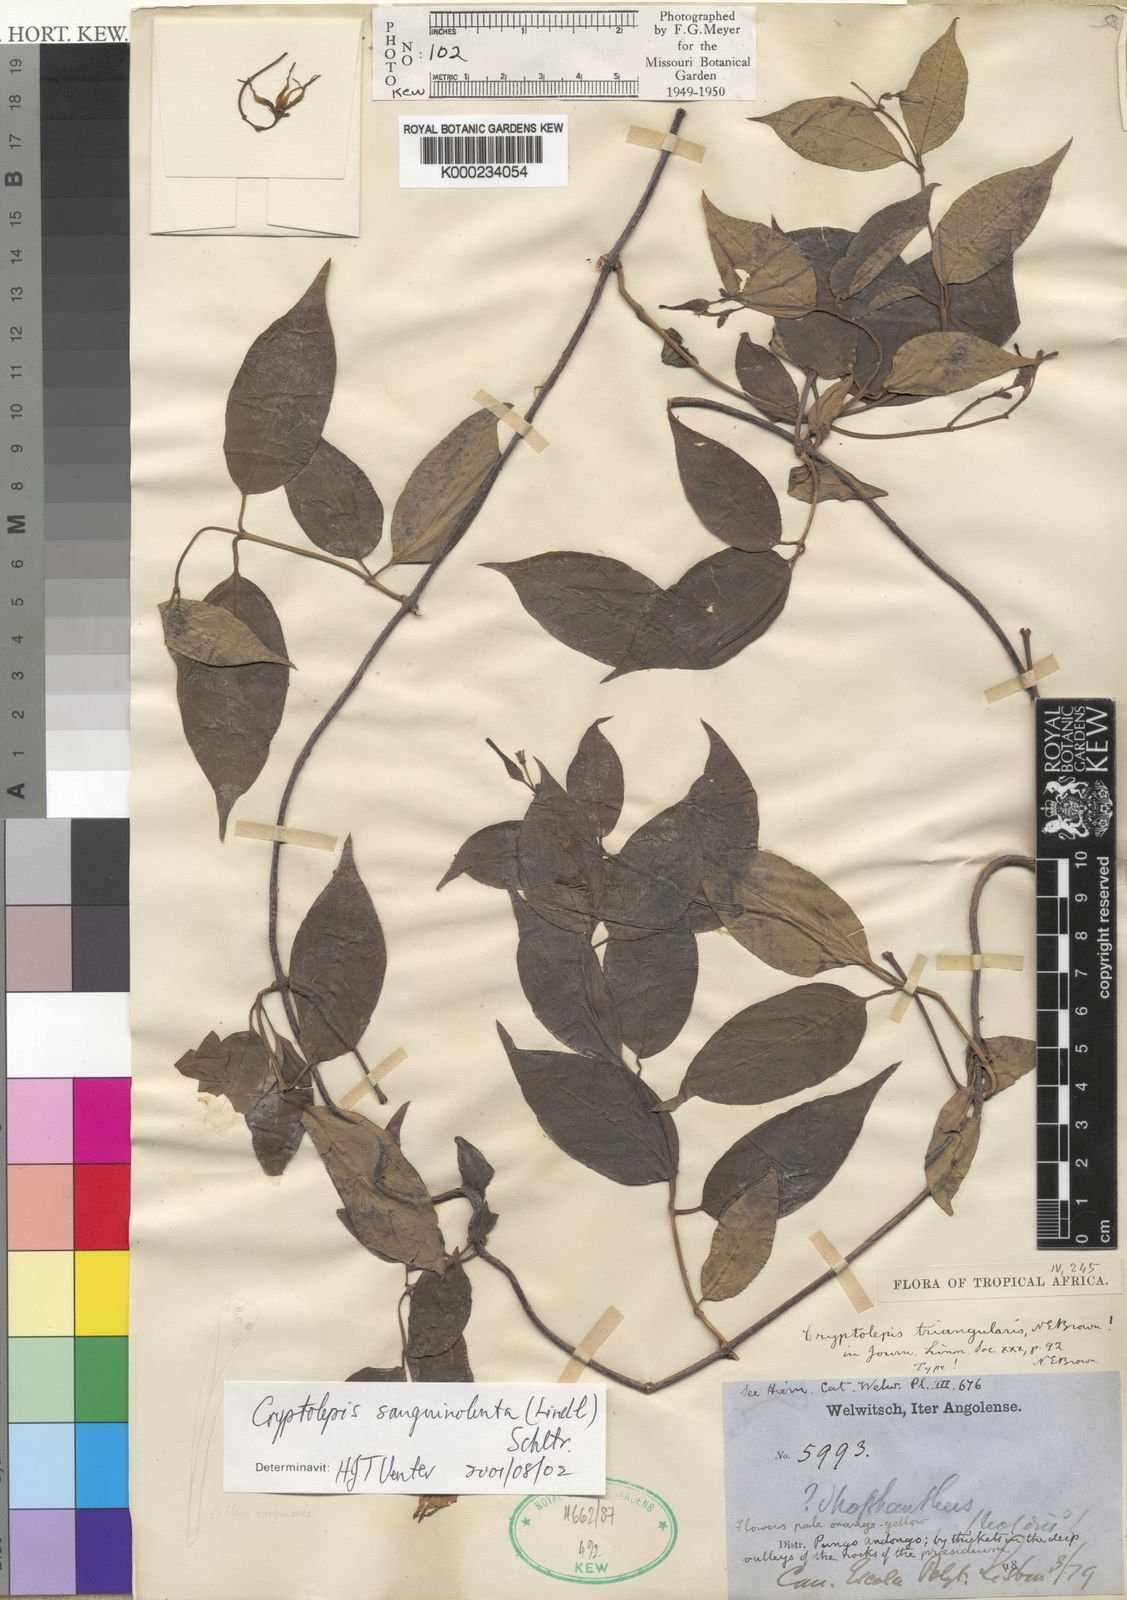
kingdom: Plantae
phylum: Tracheophyta
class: Magnoliopsida
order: Gentianales
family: Apocynaceae
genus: Cryptolepis
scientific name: Cryptolepis sanguinolenta
